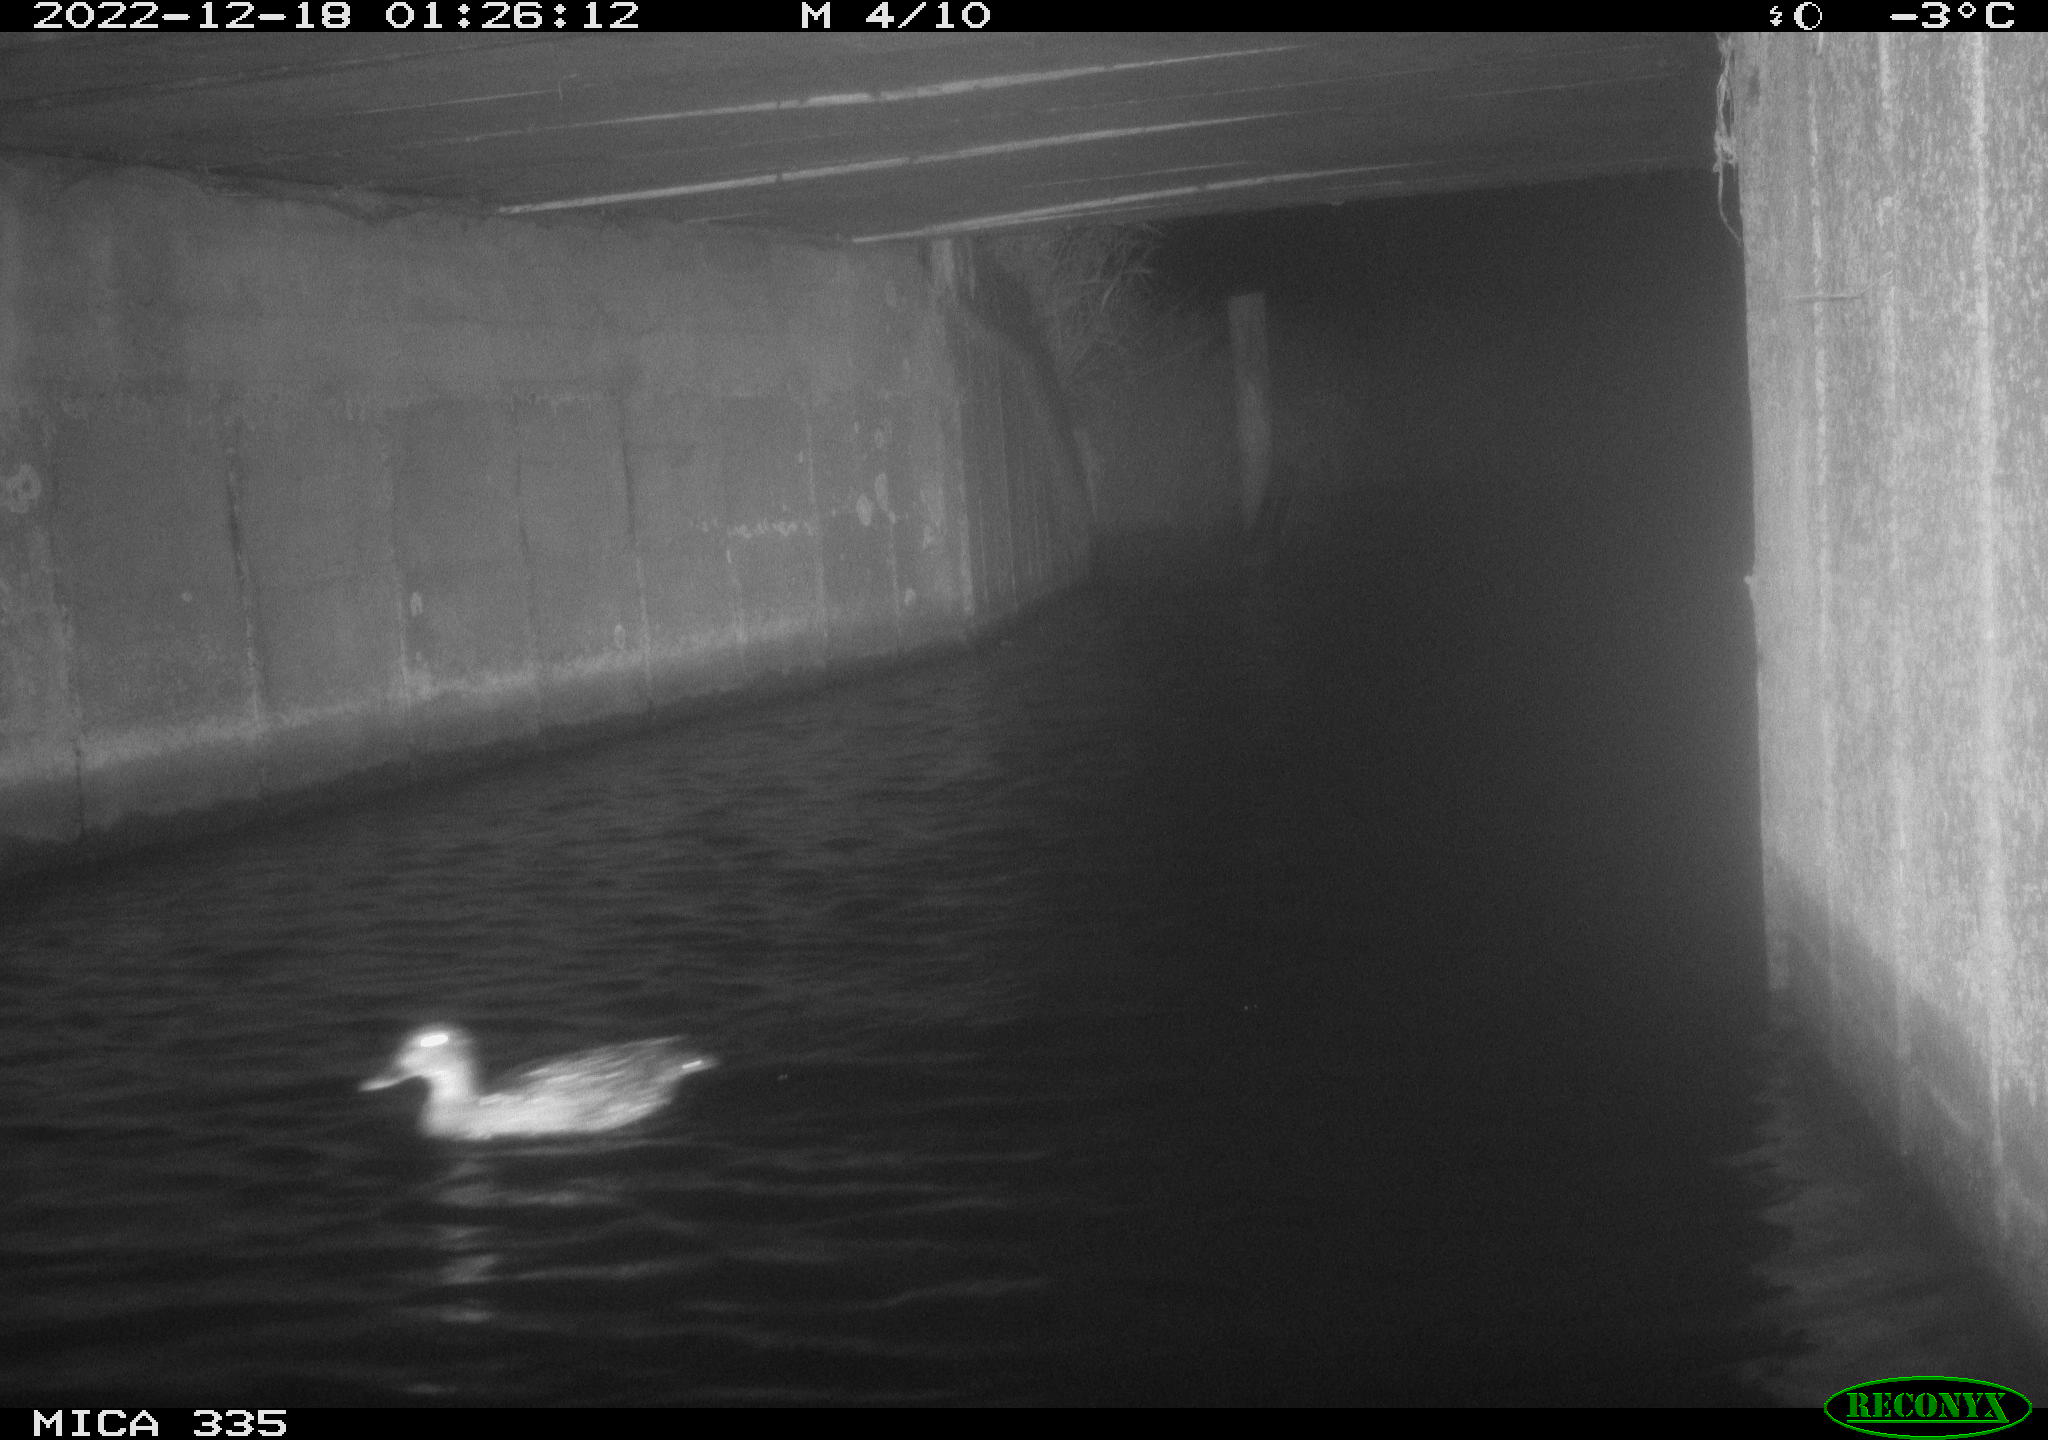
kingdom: Animalia
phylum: Chordata
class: Aves
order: Anseriformes
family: Anatidae
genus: Anas
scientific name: Anas
